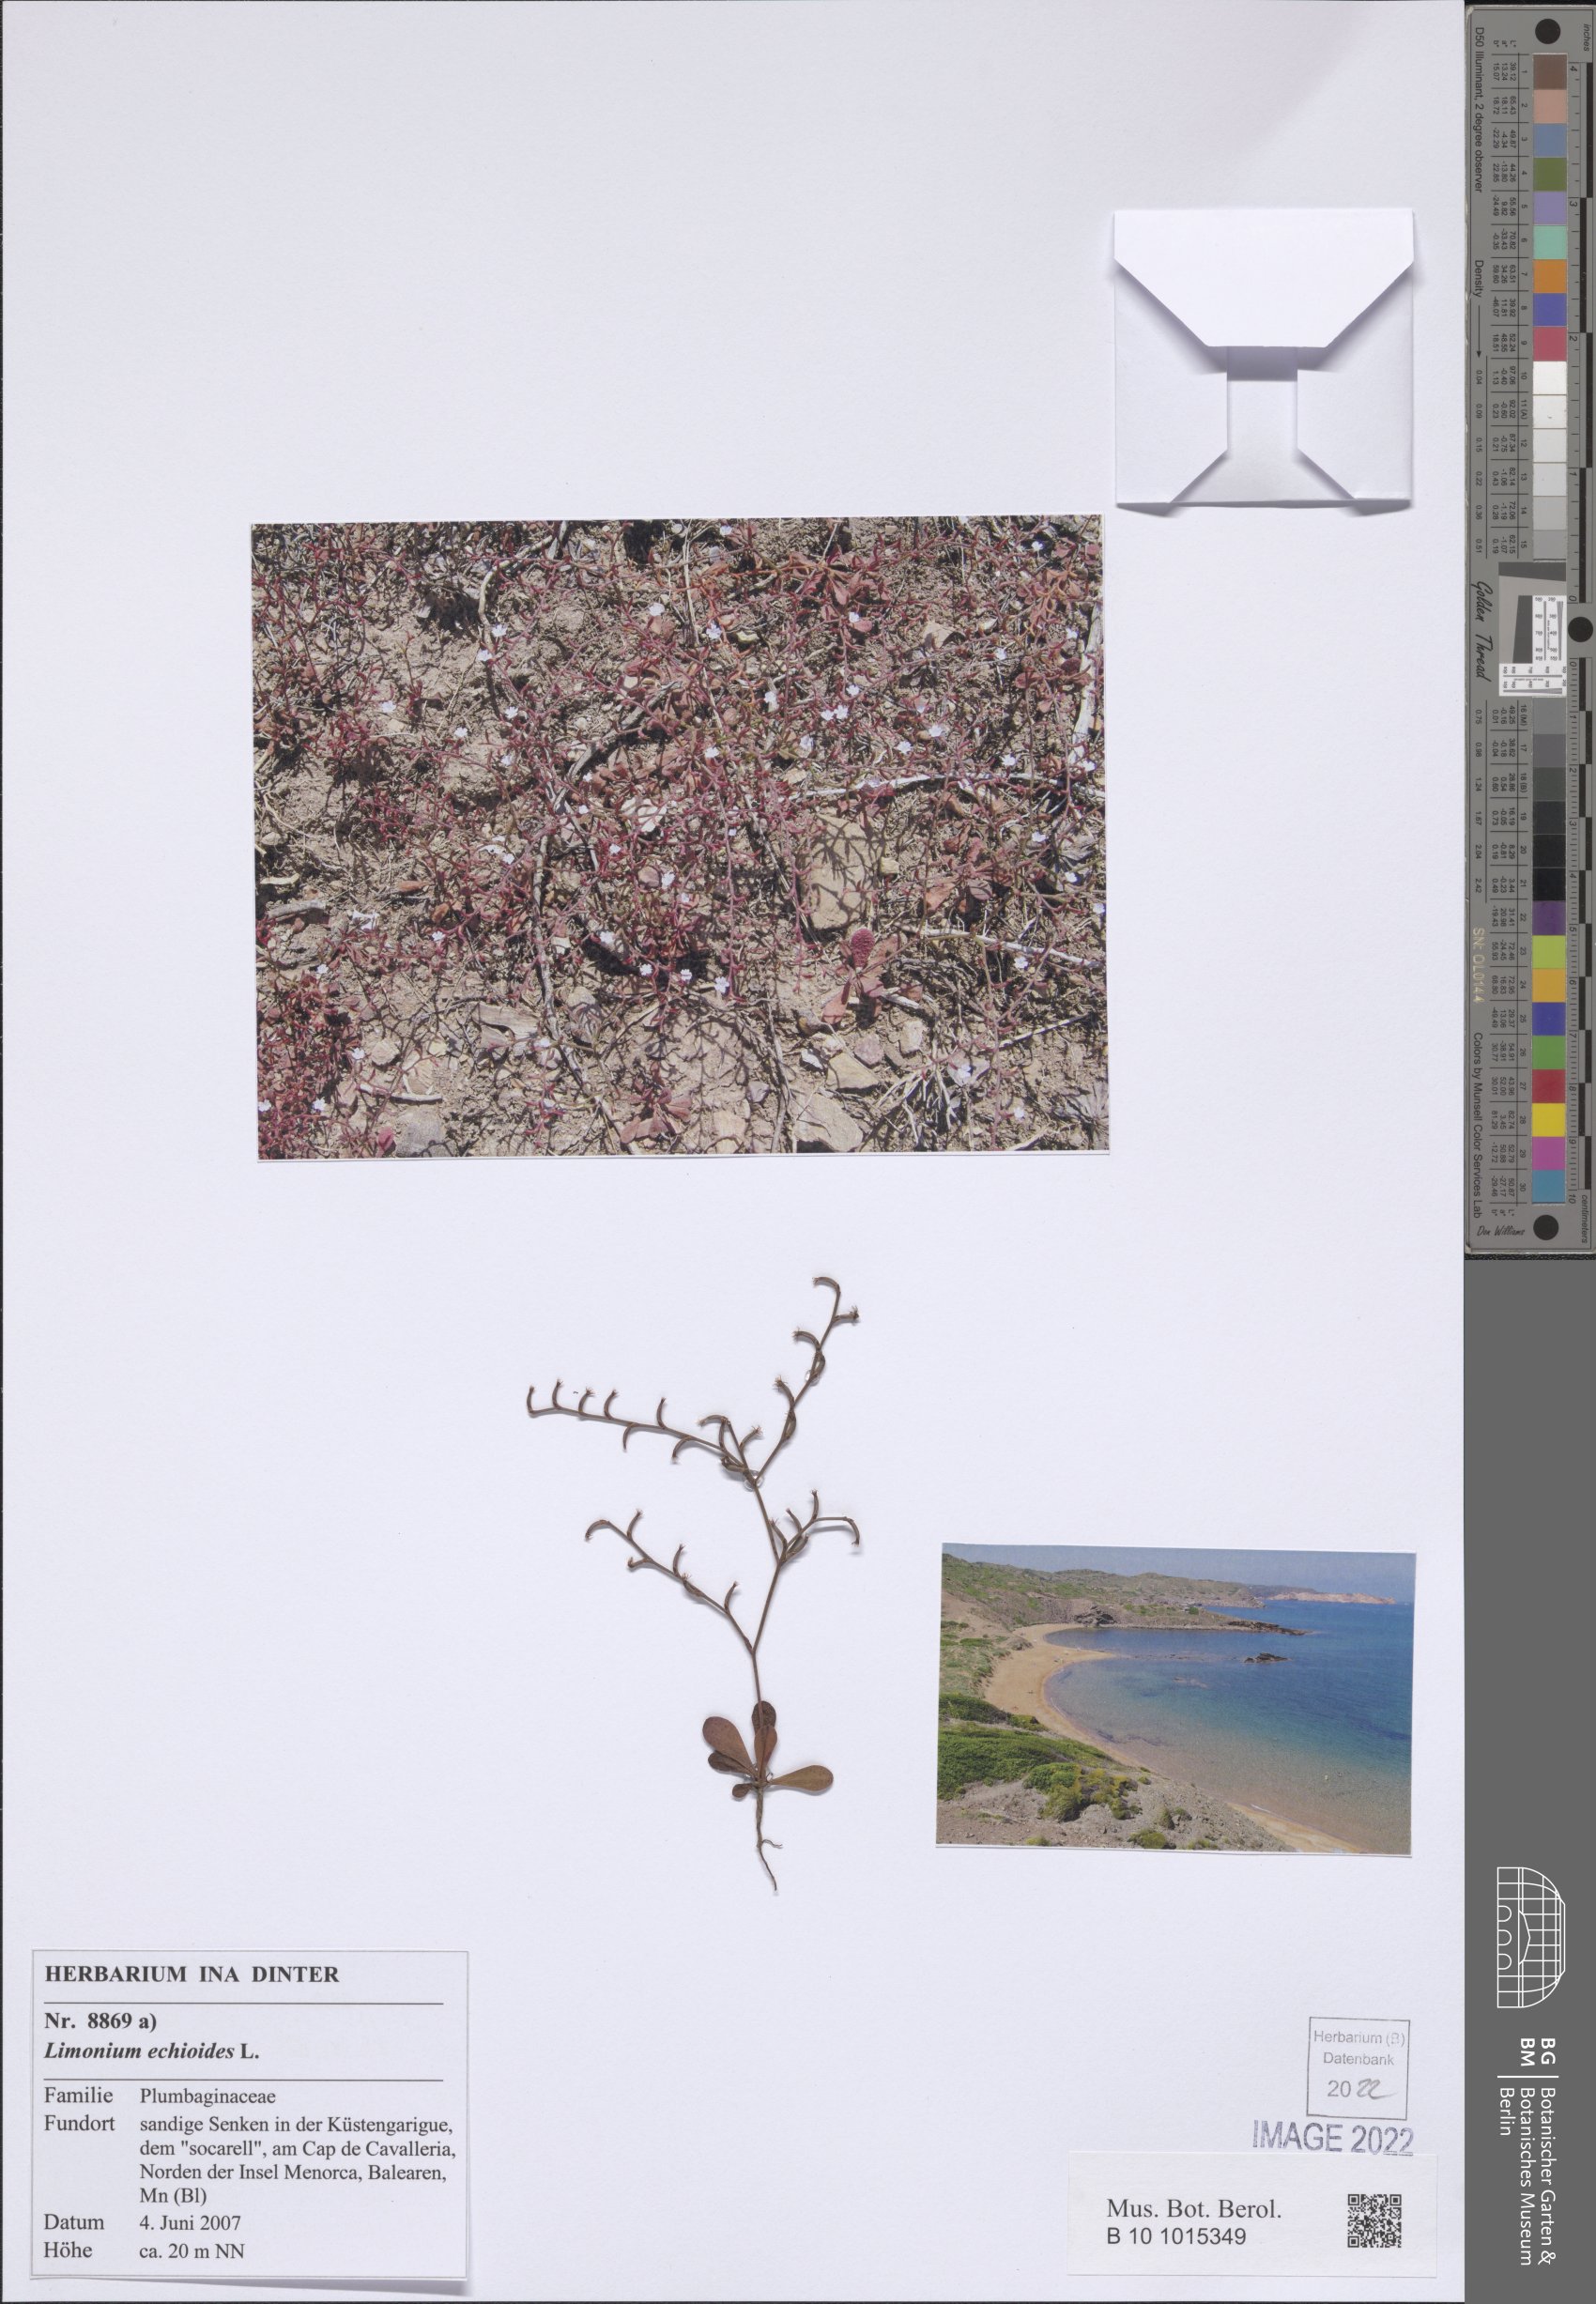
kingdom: Plantae
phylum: Tracheophyta
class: Magnoliopsida
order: Caryophyllales
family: Plumbaginaceae
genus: Limonium
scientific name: Limonium echioides
